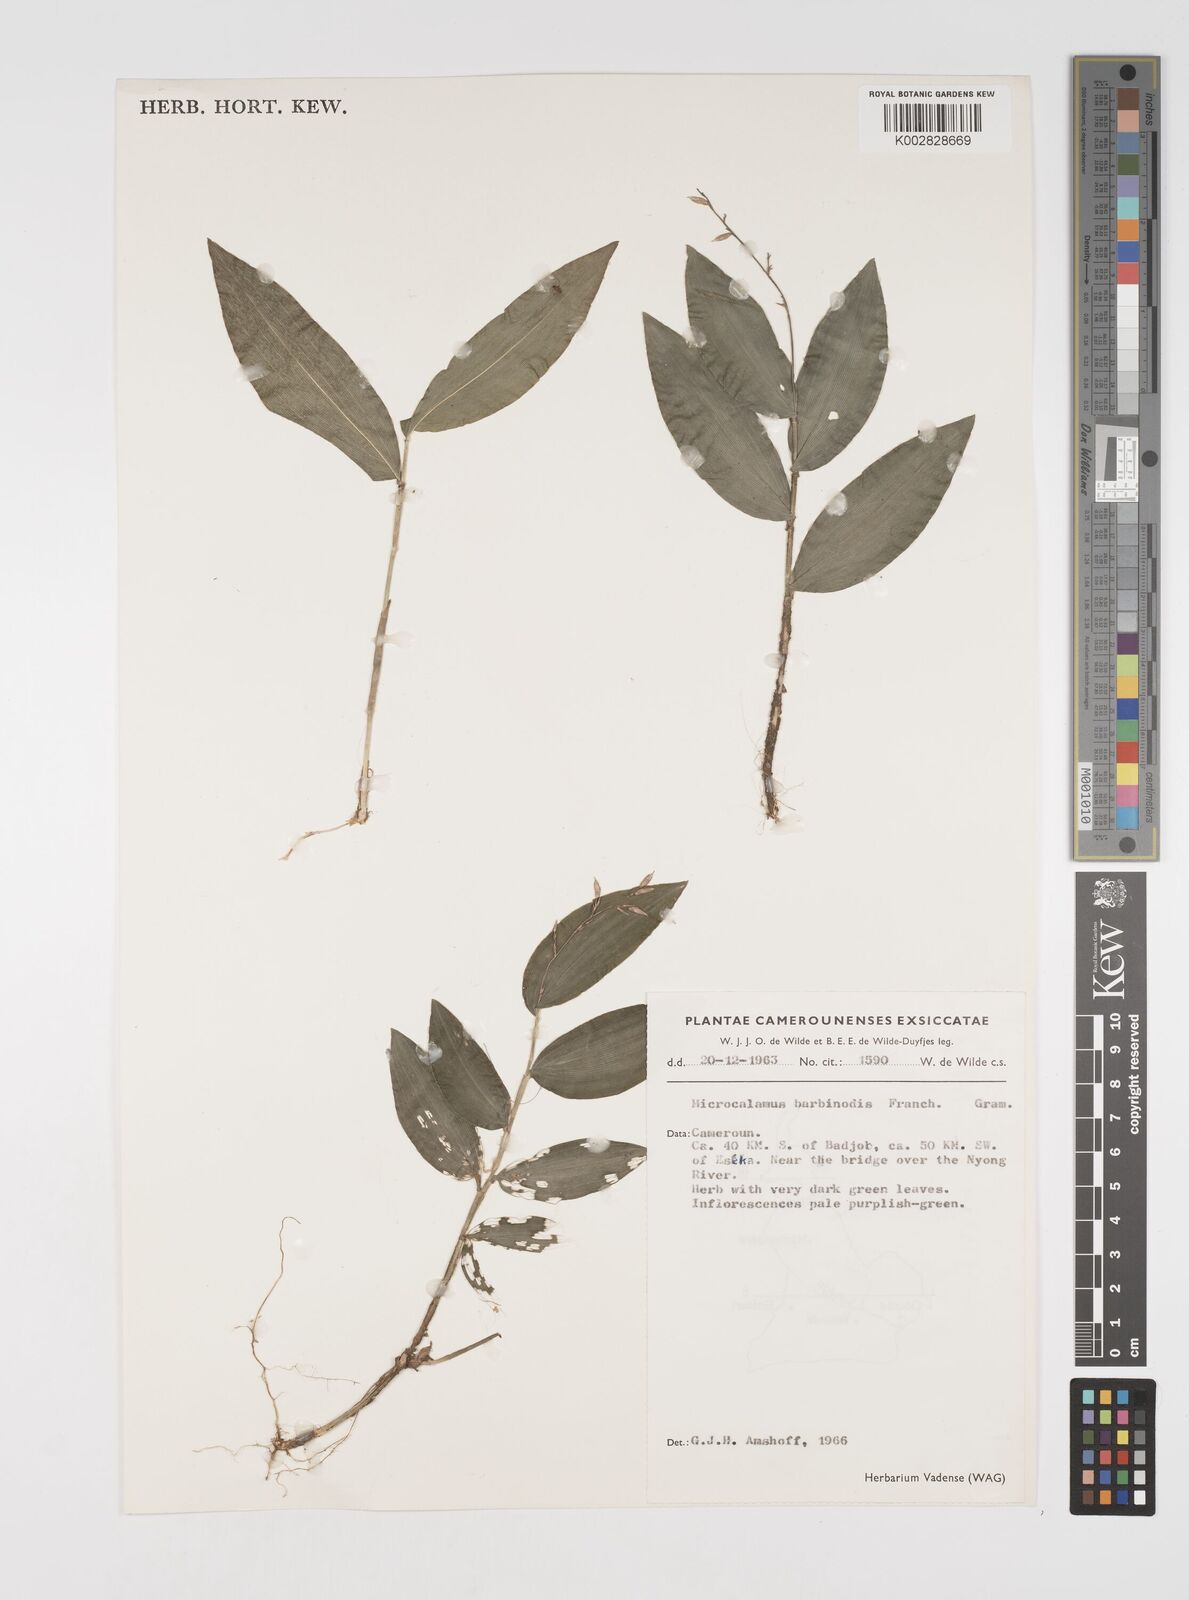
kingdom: Plantae
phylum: Tracheophyta
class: Liliopsida
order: Poales
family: Poaceae
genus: Microcalamus
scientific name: Microcalamus barbinodis
